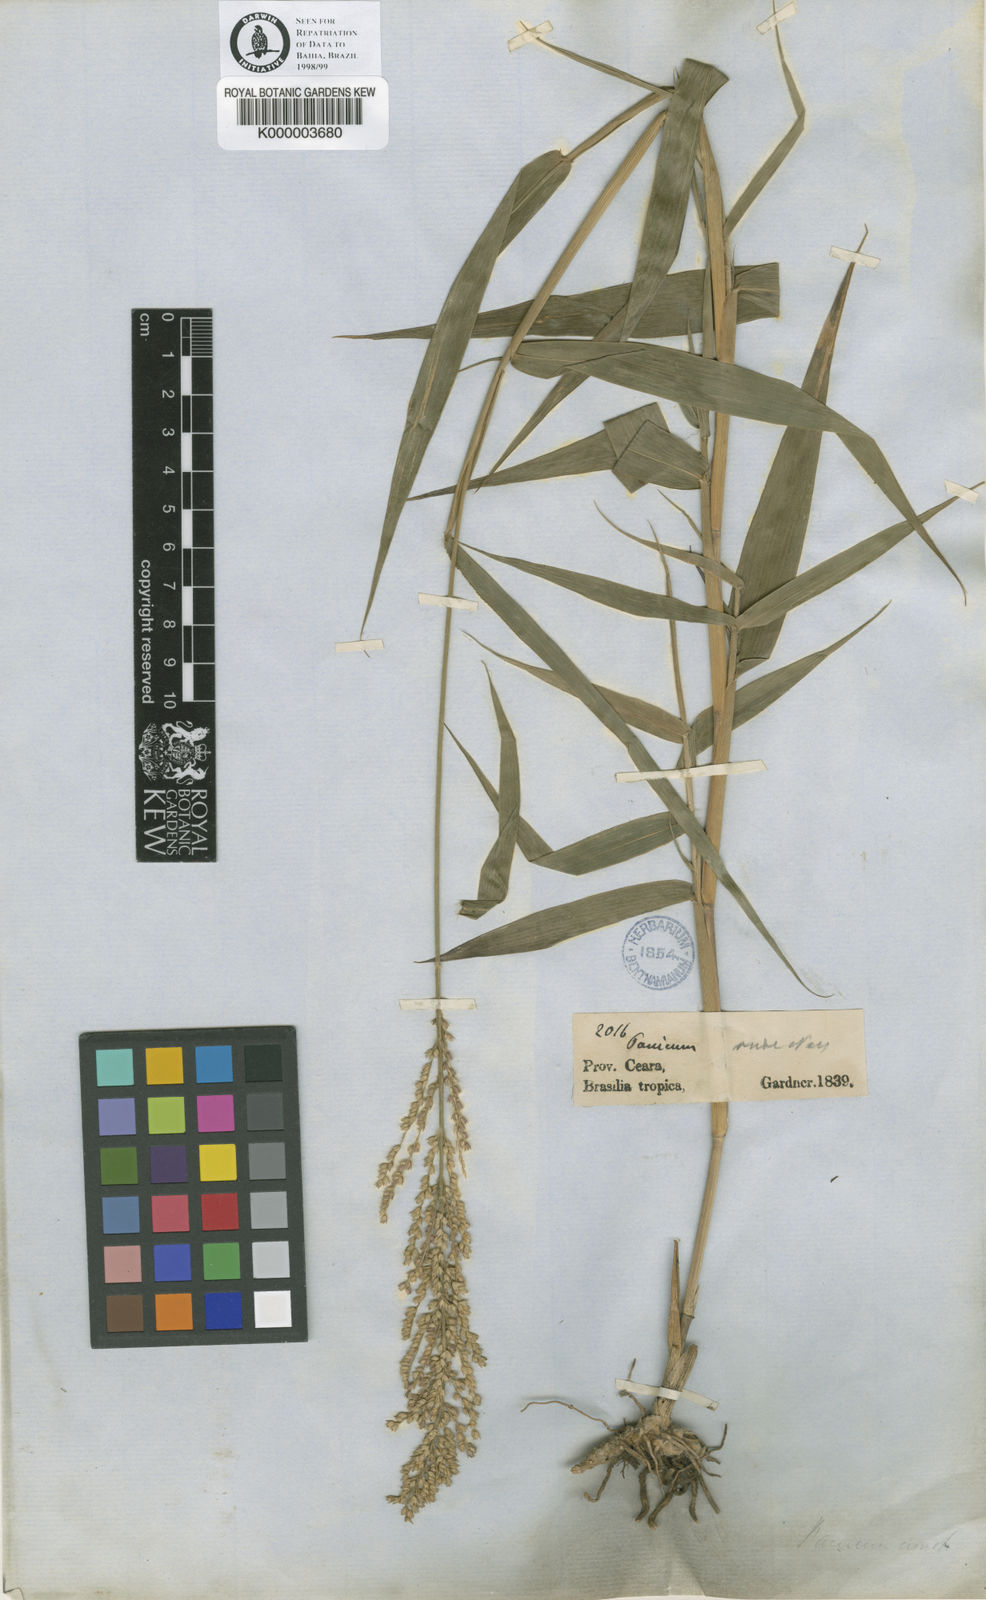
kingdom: Plantae
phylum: Tracheophyta
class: Liliopsida
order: Poales
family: Poaceae
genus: Ocellochloa
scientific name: Ocellochloa chapadensis
